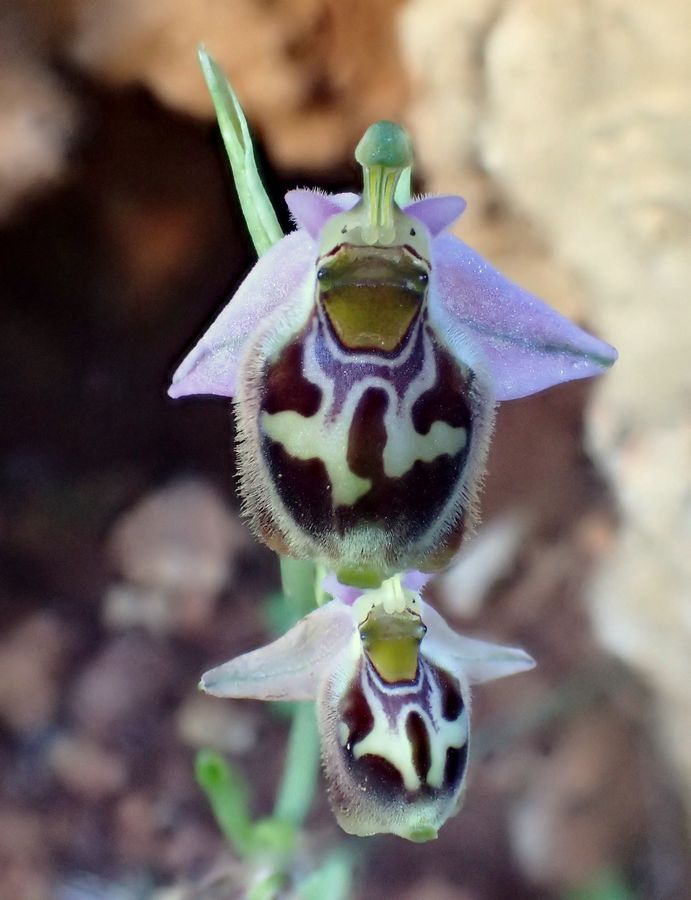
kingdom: Plantae
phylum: Tracheophyta
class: Liliopsida
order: Asparagales
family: Orchidaceae
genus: Ophrys
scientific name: Ophrys bornmuelleri
